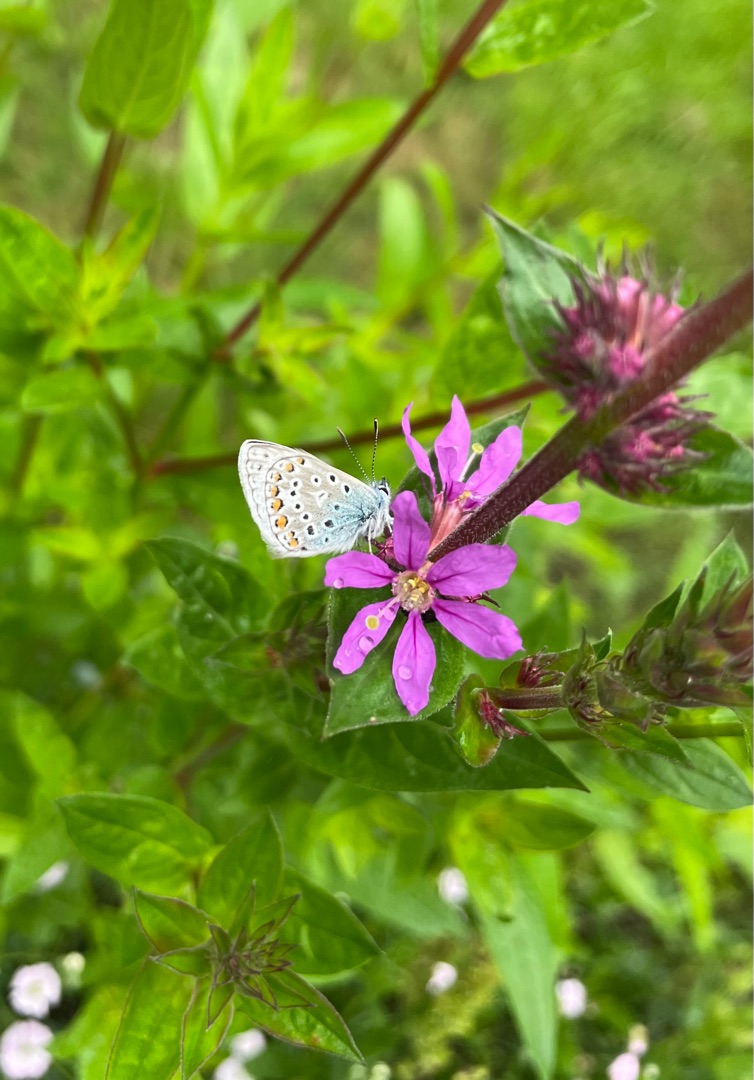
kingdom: Animalia
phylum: Arthropoda
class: Insecta
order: Lepidoptera
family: Lycaenidae
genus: Polyommatus
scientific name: Polyommatus icarus
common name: Almindelig blåfugl
